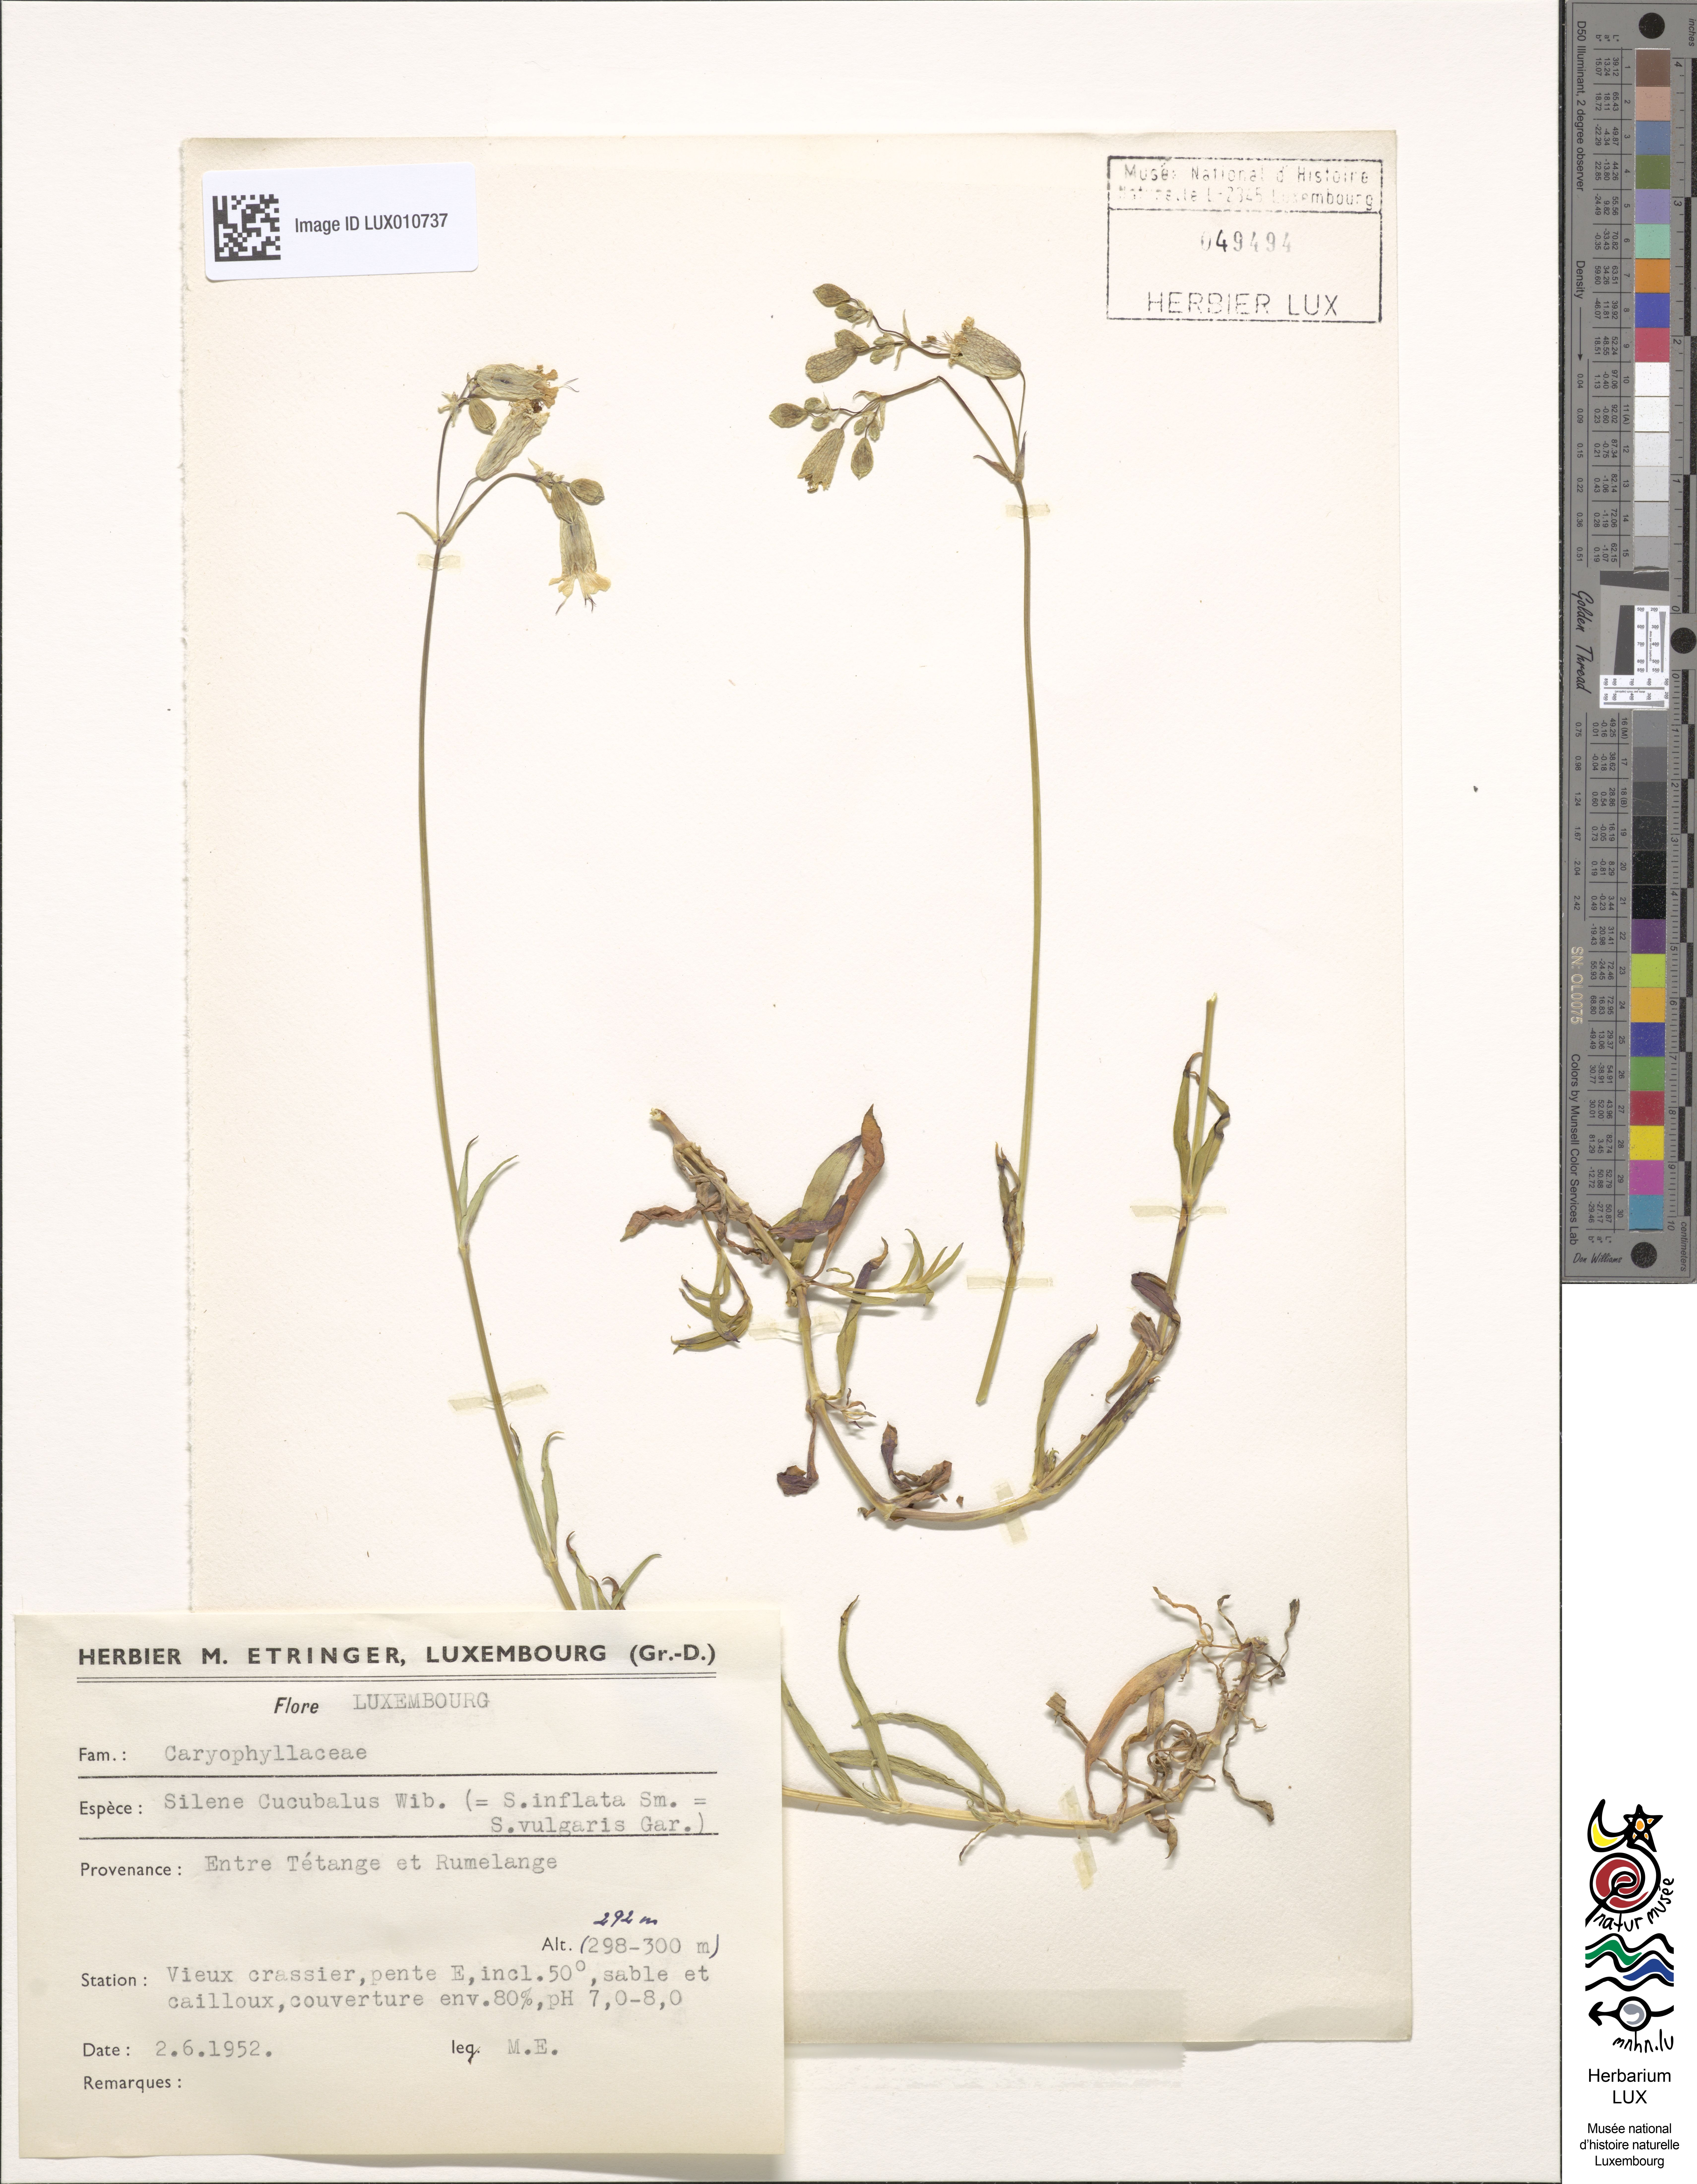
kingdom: Plantae
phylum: Tracheophyta
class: Magnoliopsida
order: Caryophyllales
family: Caryophyllaceae
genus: Silene
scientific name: Silene vulgaris
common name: Bladder campion
